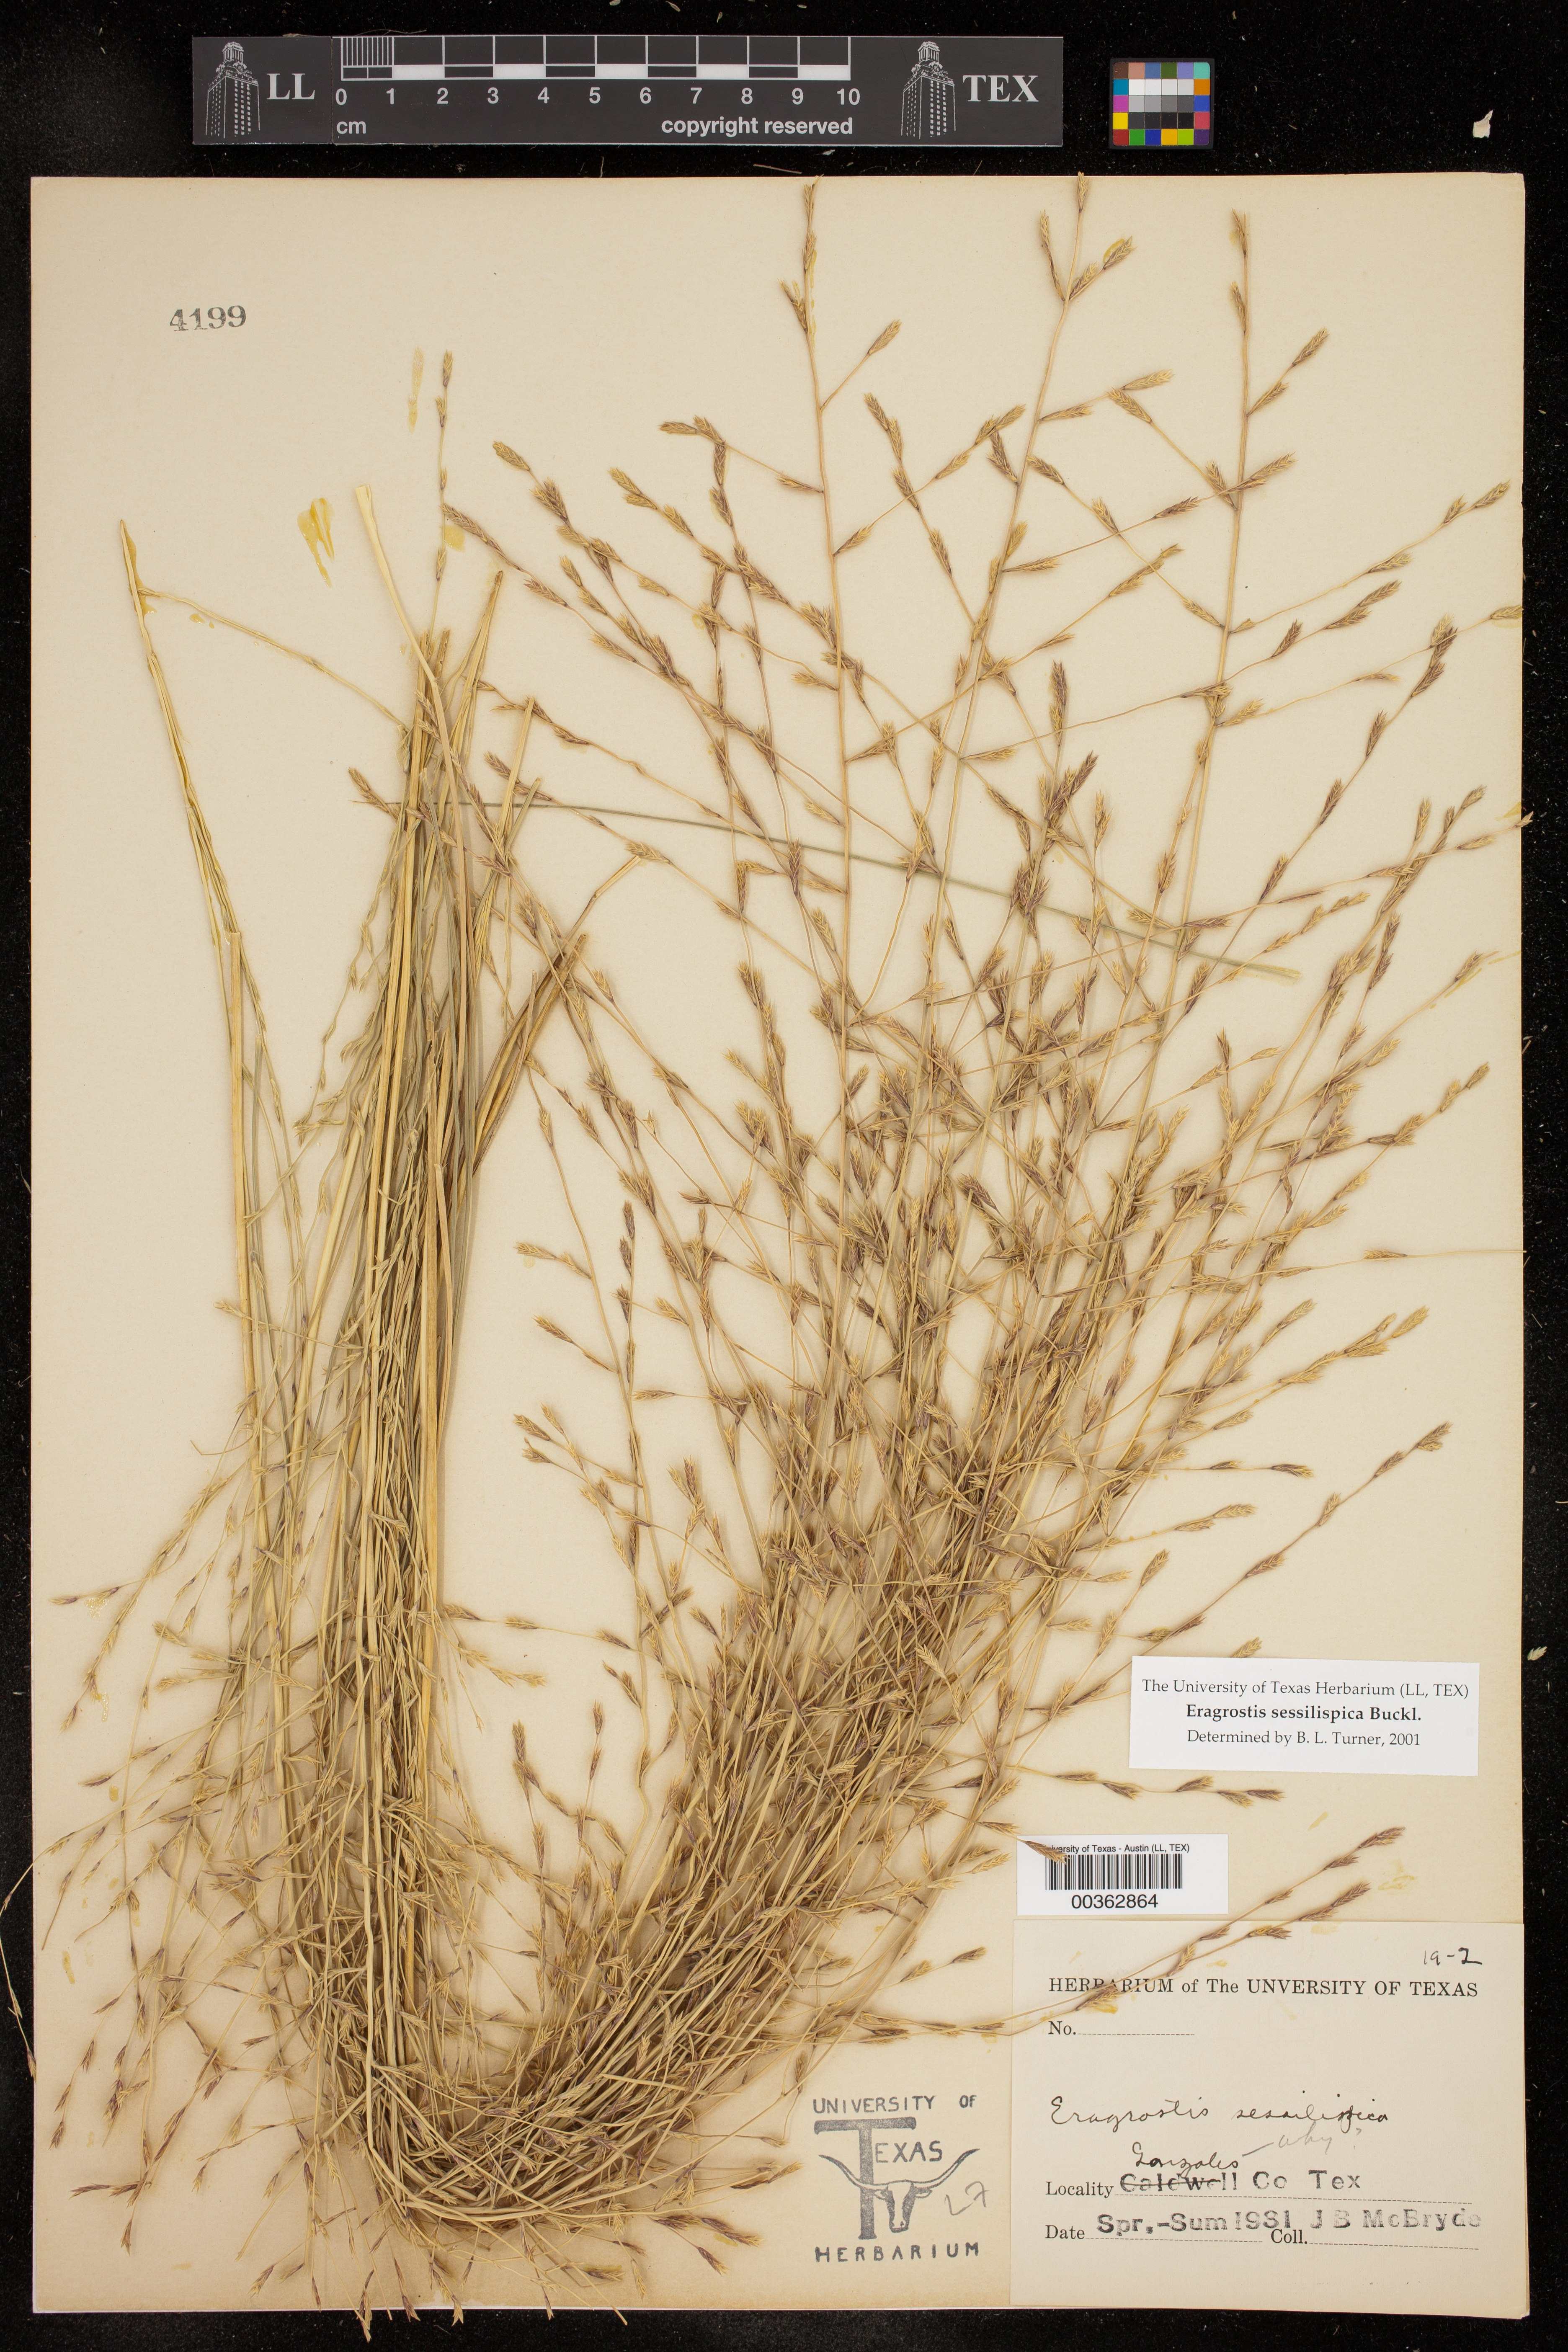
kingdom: Plantae
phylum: Tracheophyta
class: Liliopsida
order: Poales
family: Poaceae
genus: Eragrostis
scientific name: Eragrostis sessilispica
